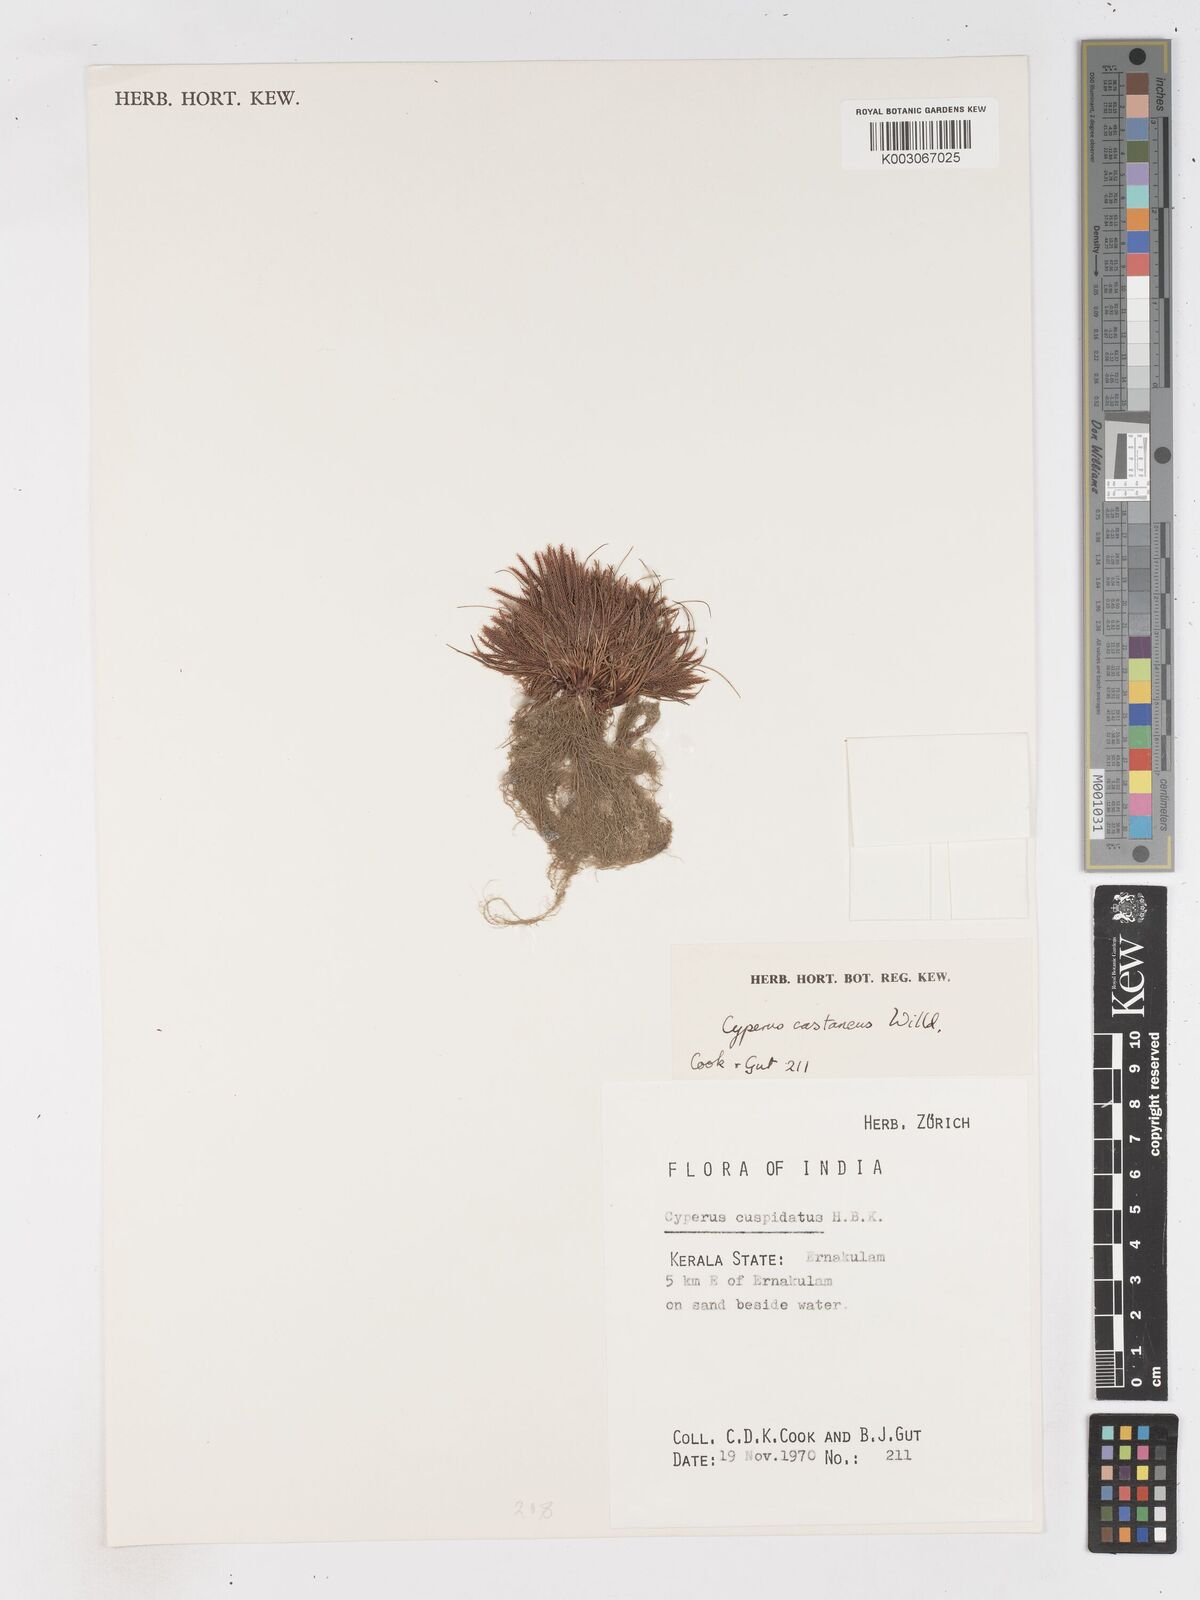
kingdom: Plantae
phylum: Tracheophyta
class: Liliopsida
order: Poales
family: Cyperaceae
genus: Cyperus
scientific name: Cyperus castaneus
